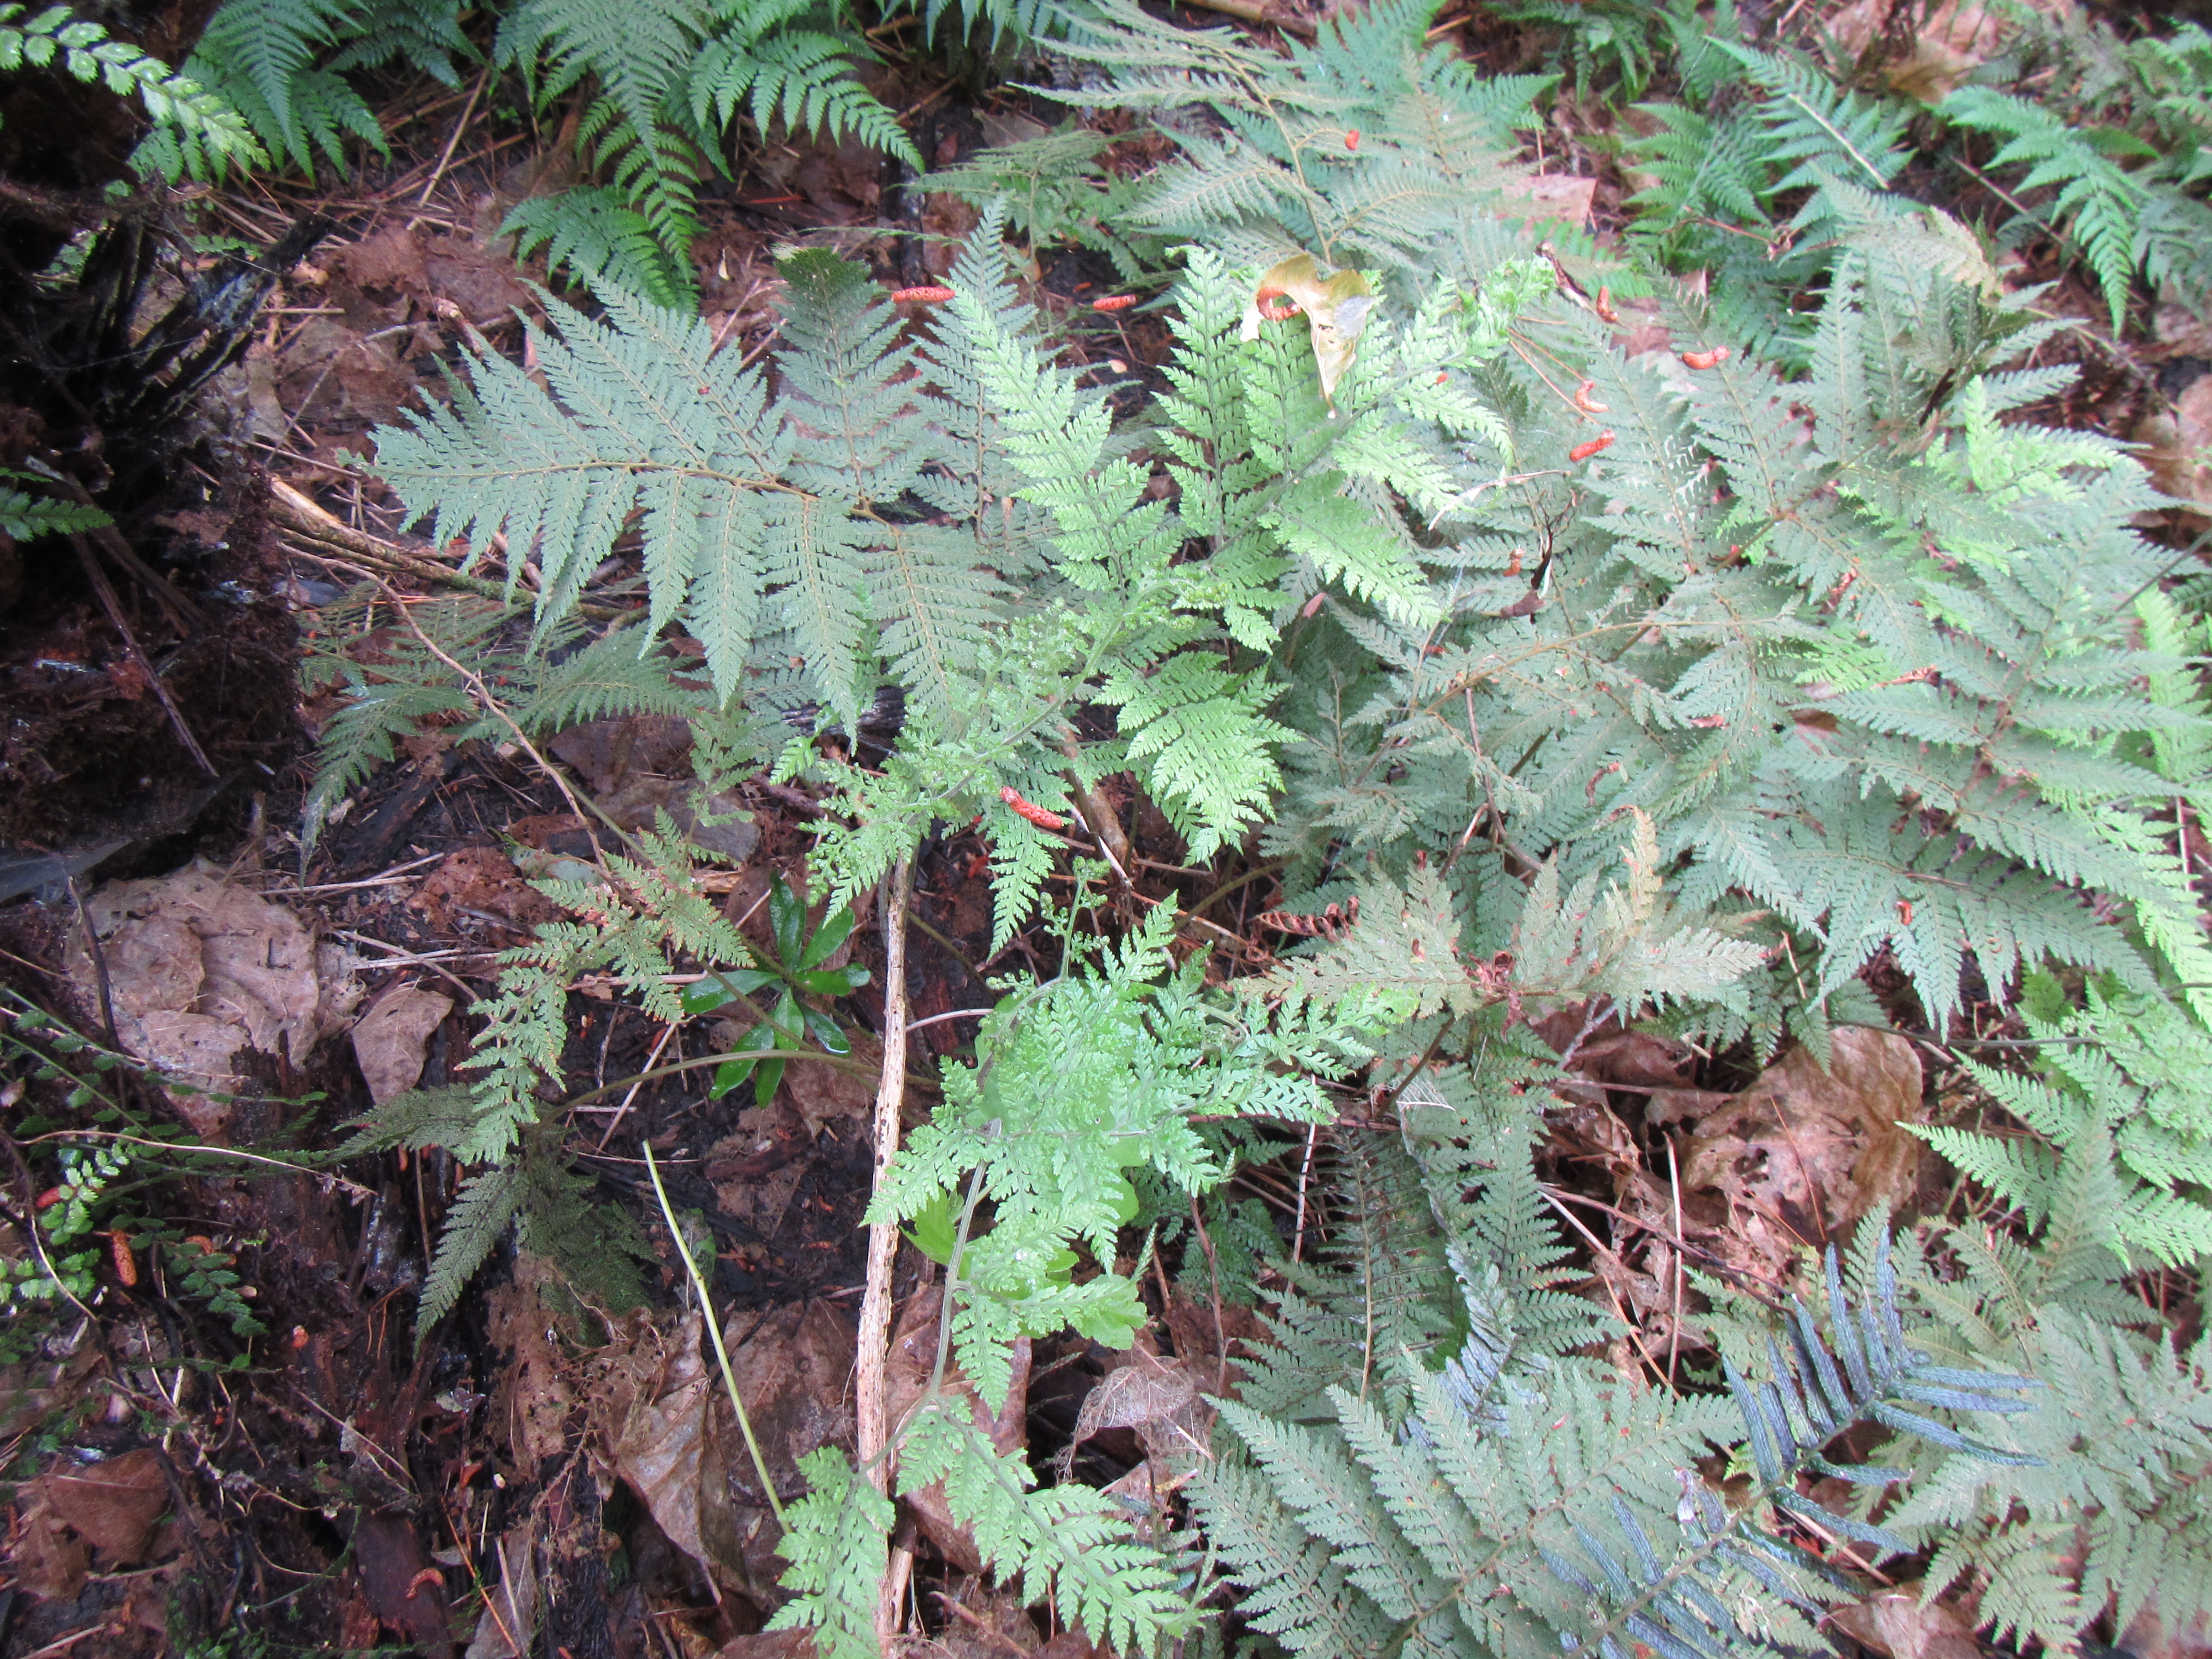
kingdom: Plantae
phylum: Tracheophyta
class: Polypodiopsida
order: Polypodiales
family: Dryopteridaceae
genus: Parapolystichum
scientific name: Parapolystichum microsorum
